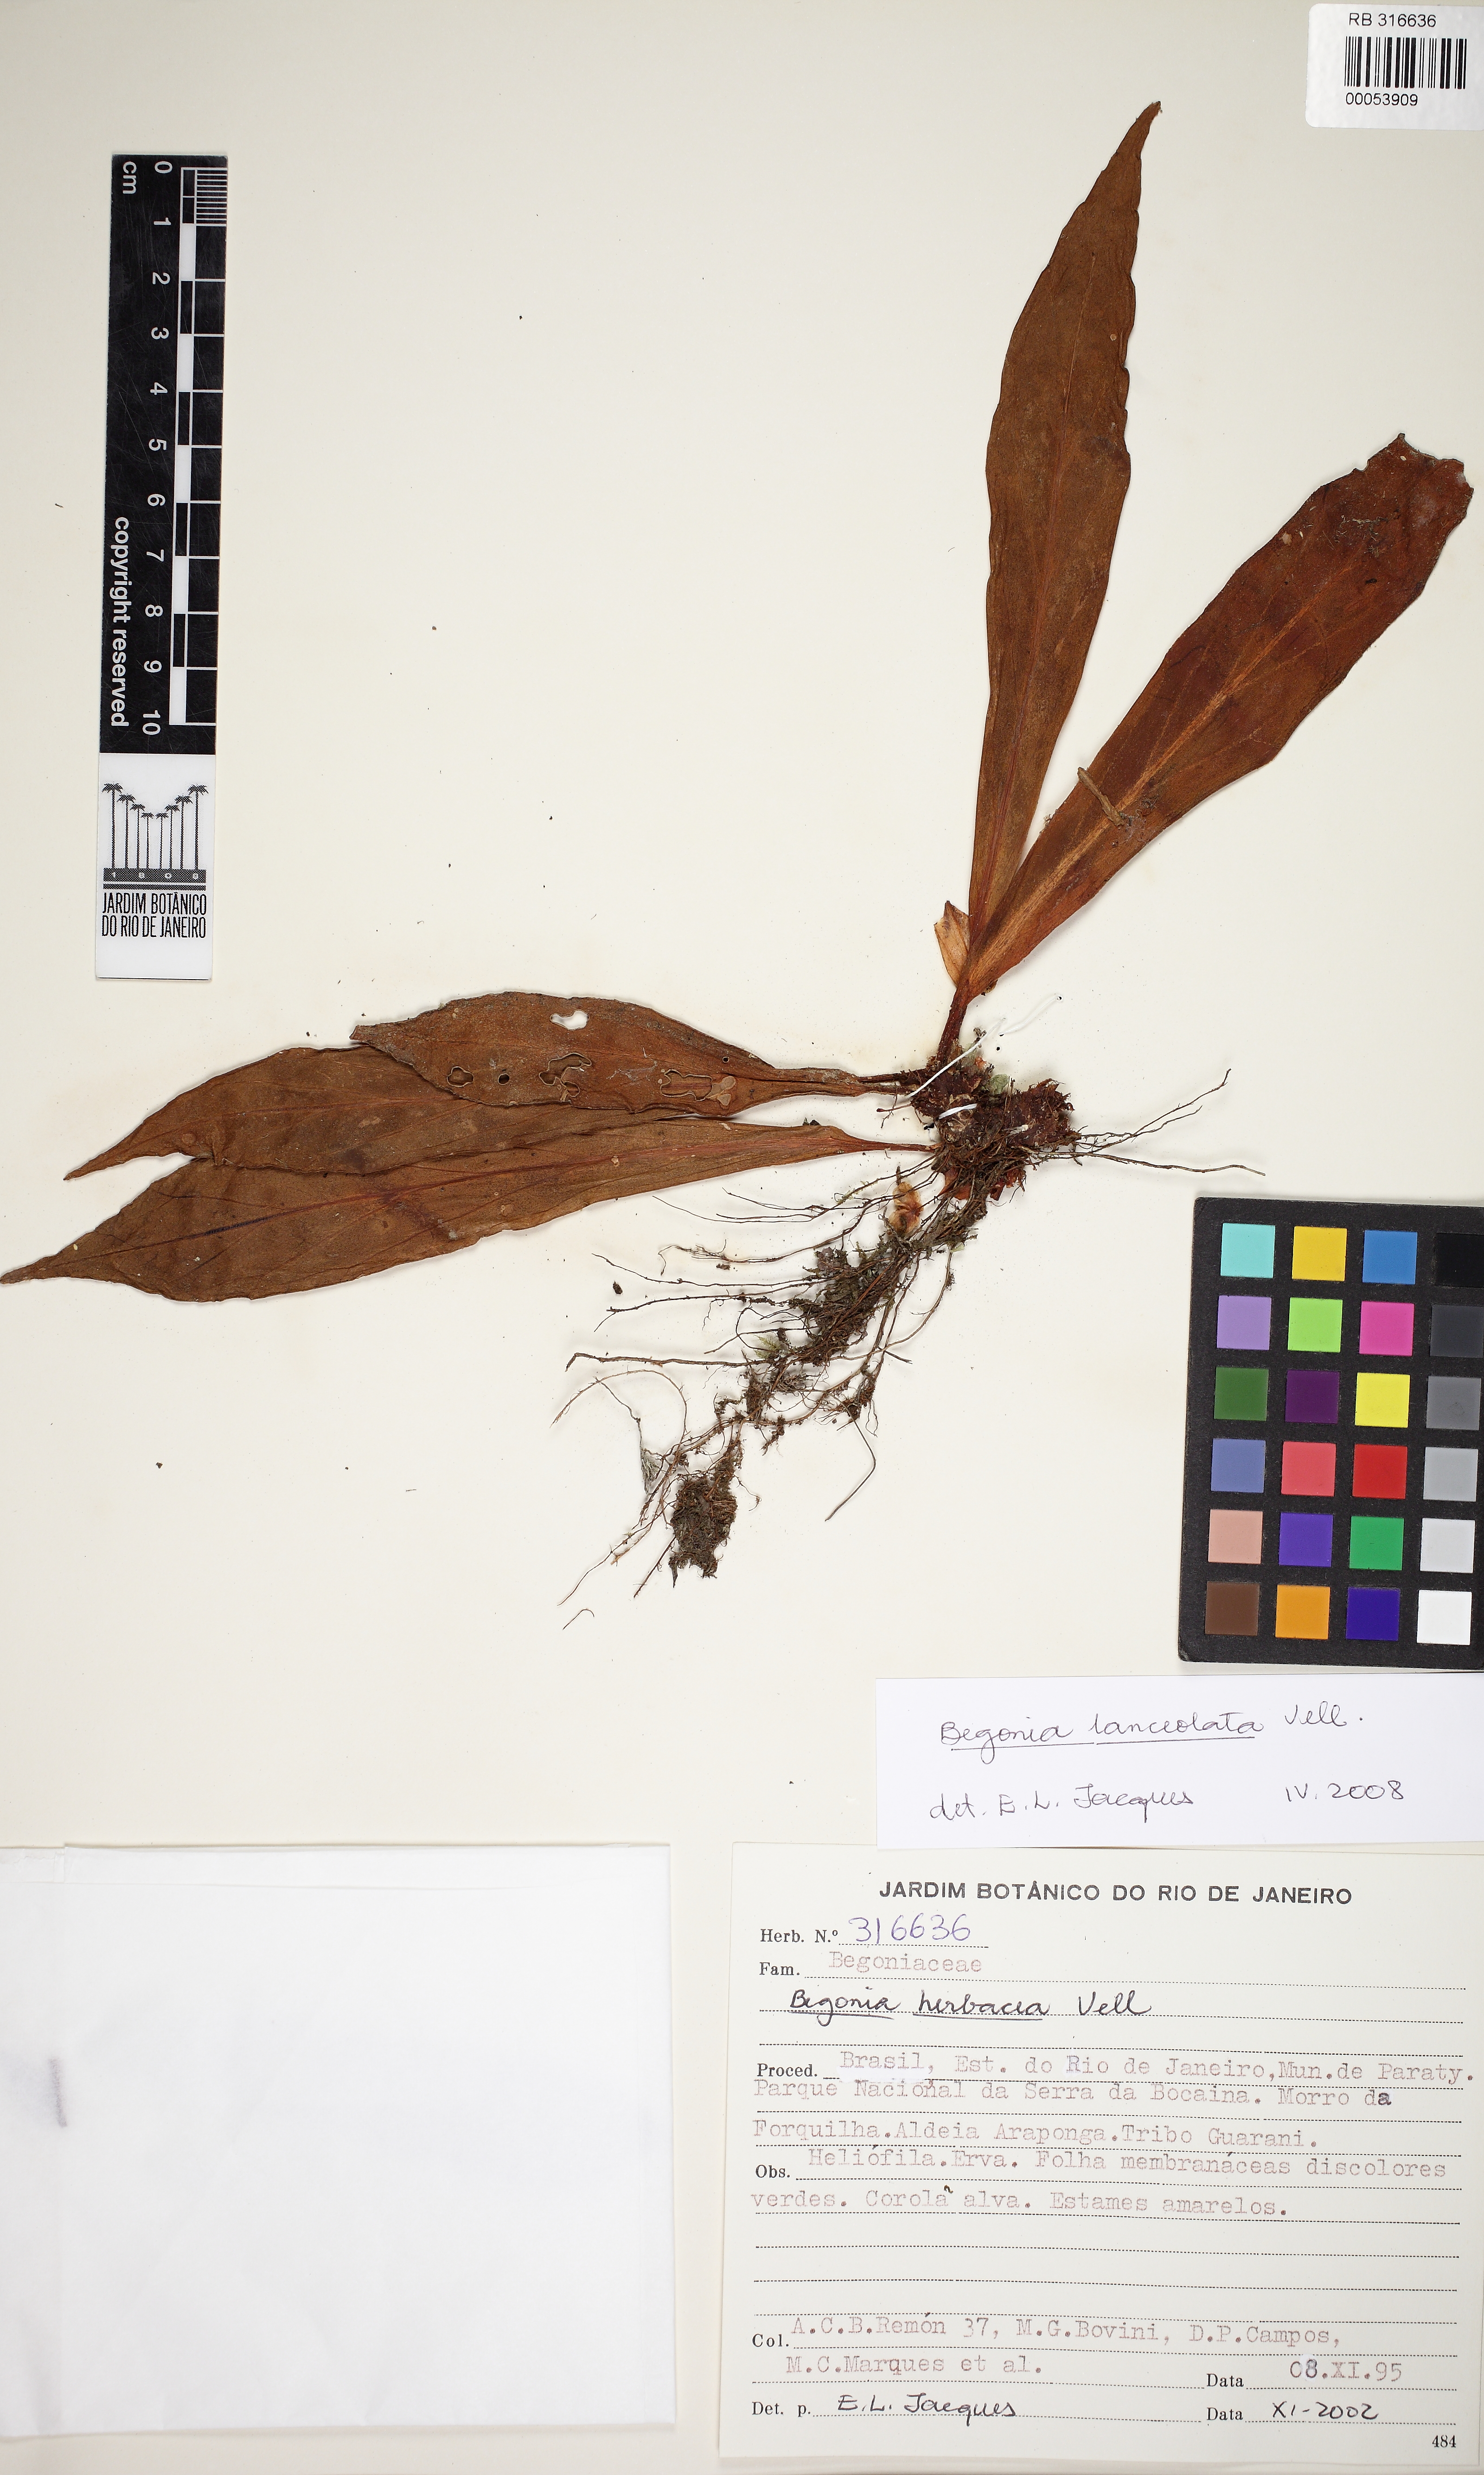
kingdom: Plantae
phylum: Tracheophyta
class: Magnoliopsida
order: Cucurbitales
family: Begoniaceae
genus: Begonia
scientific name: Begonia lanceolata
